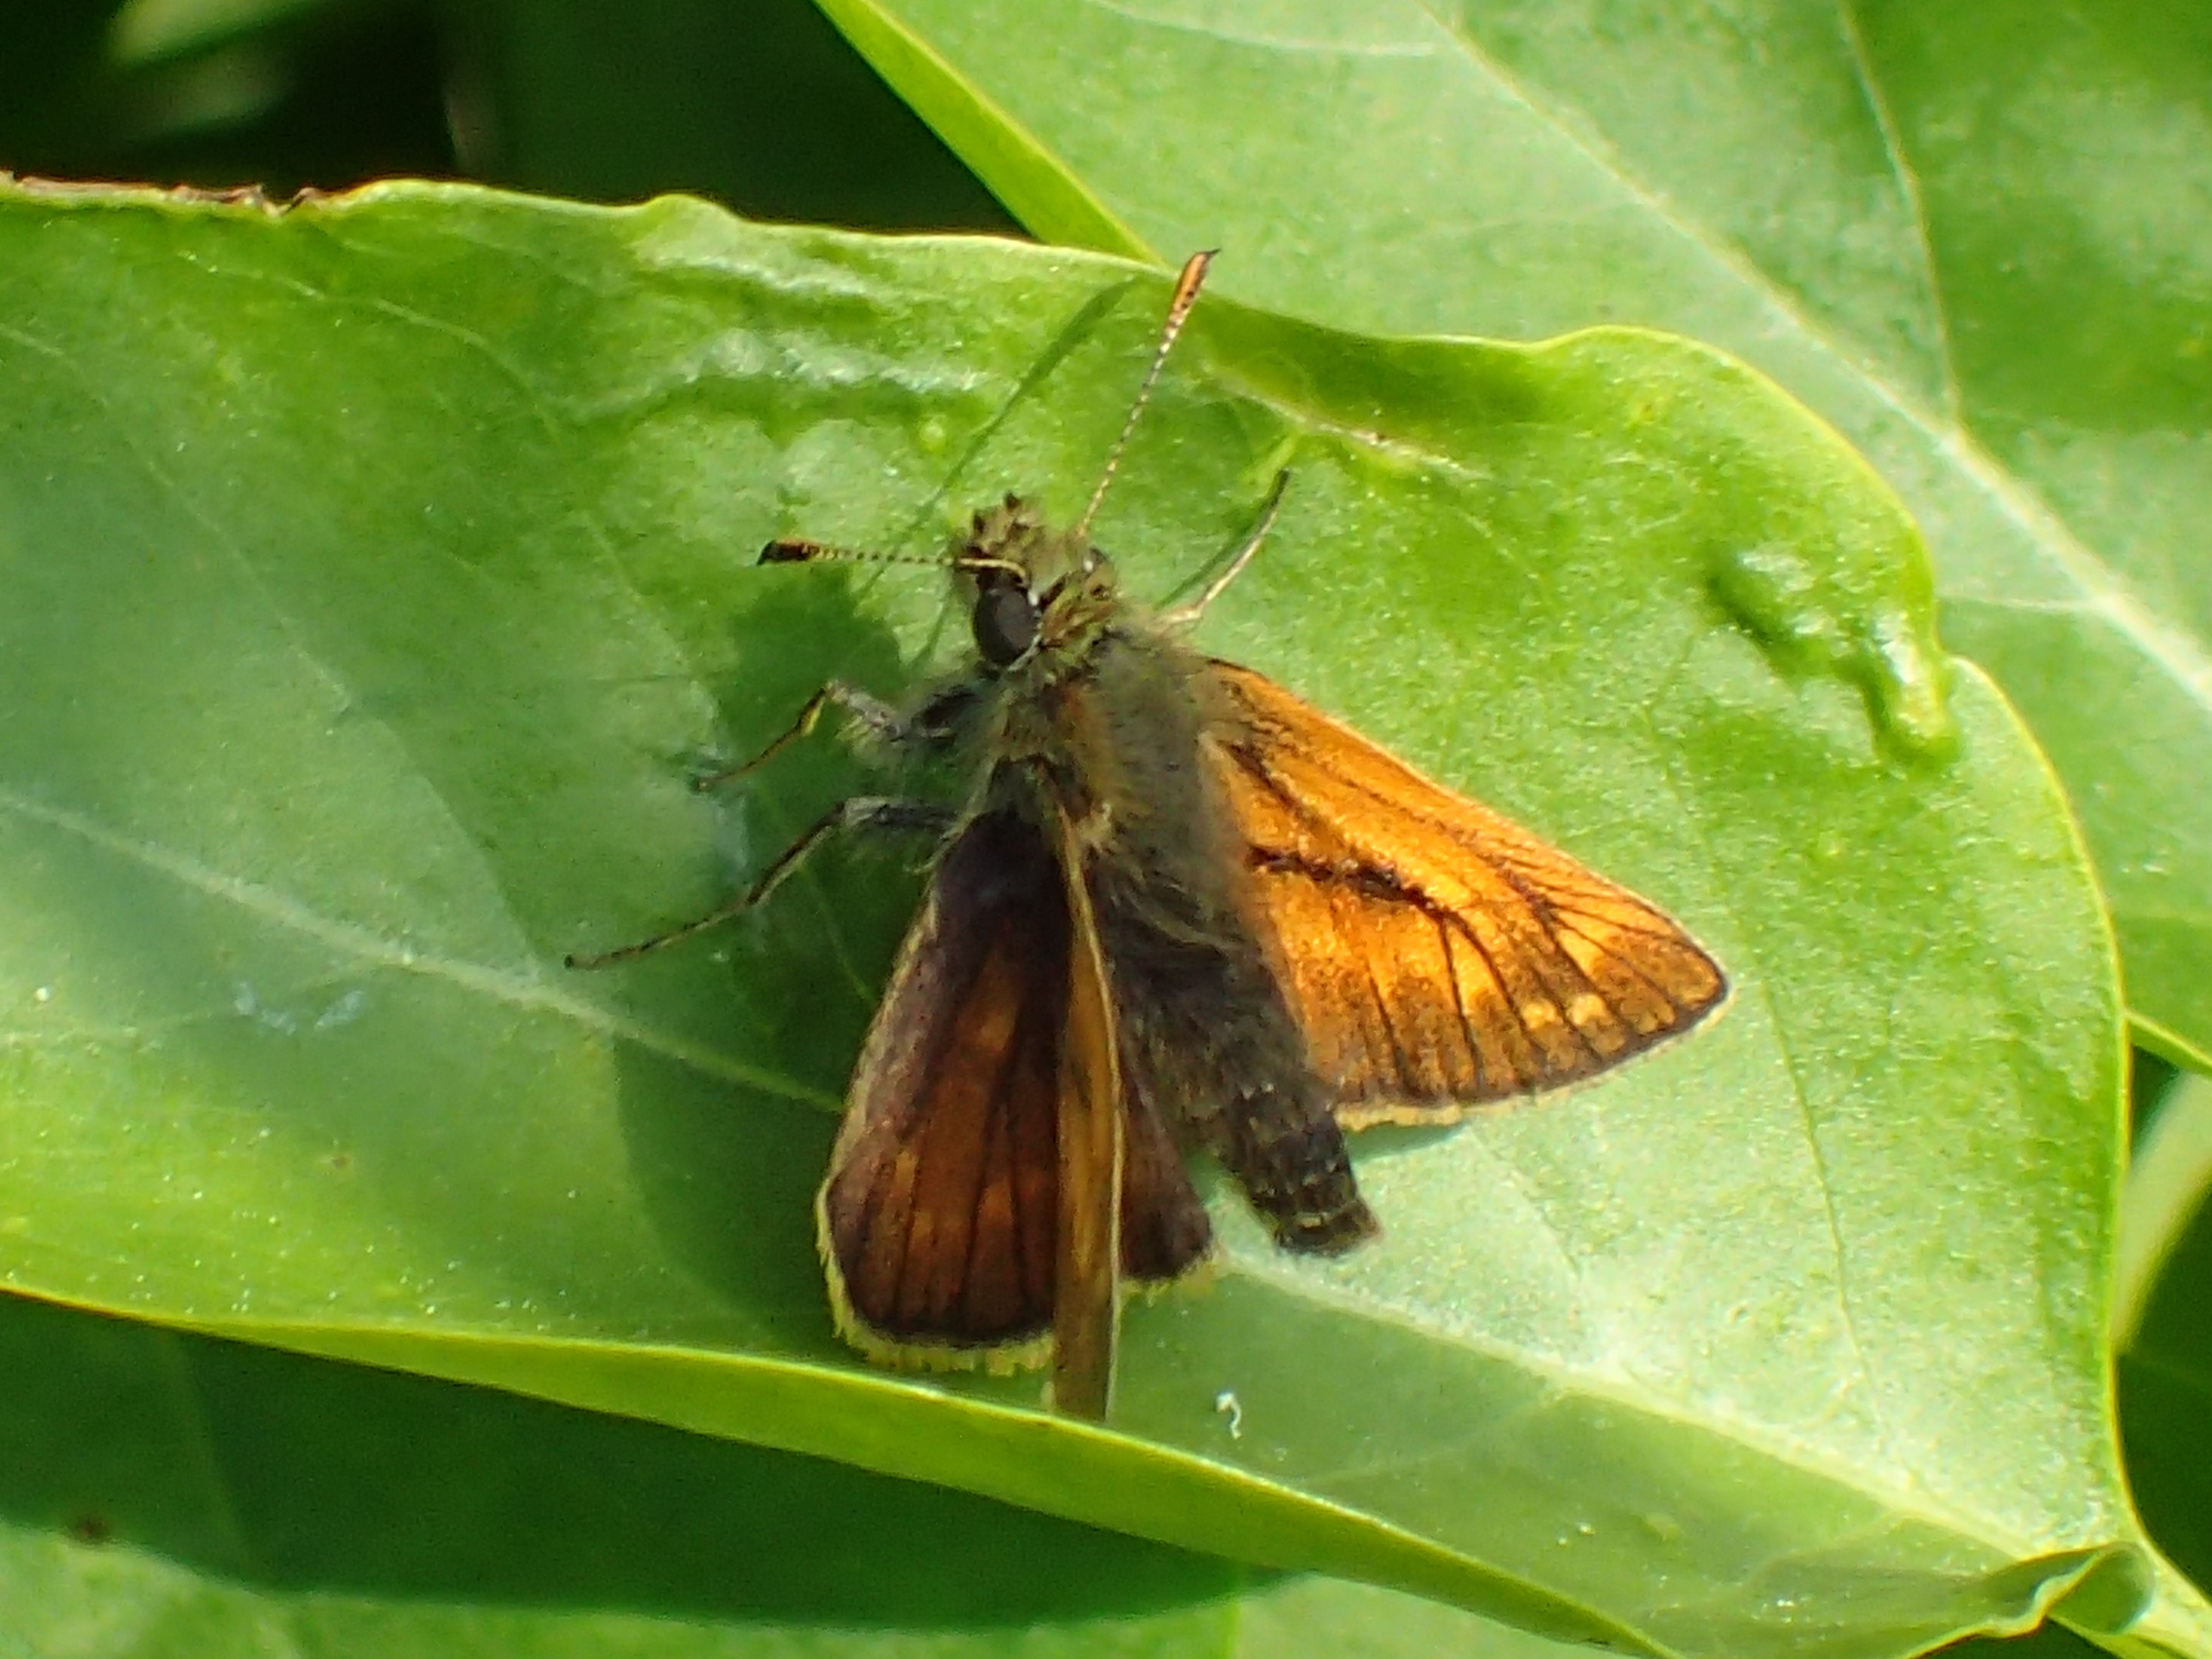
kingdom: Animalia
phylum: Arthropoda
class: Insecta
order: Lepidoptera
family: Hesperiidae
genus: Ochlodes
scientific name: Ochlodes venata
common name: Stor bredpande
